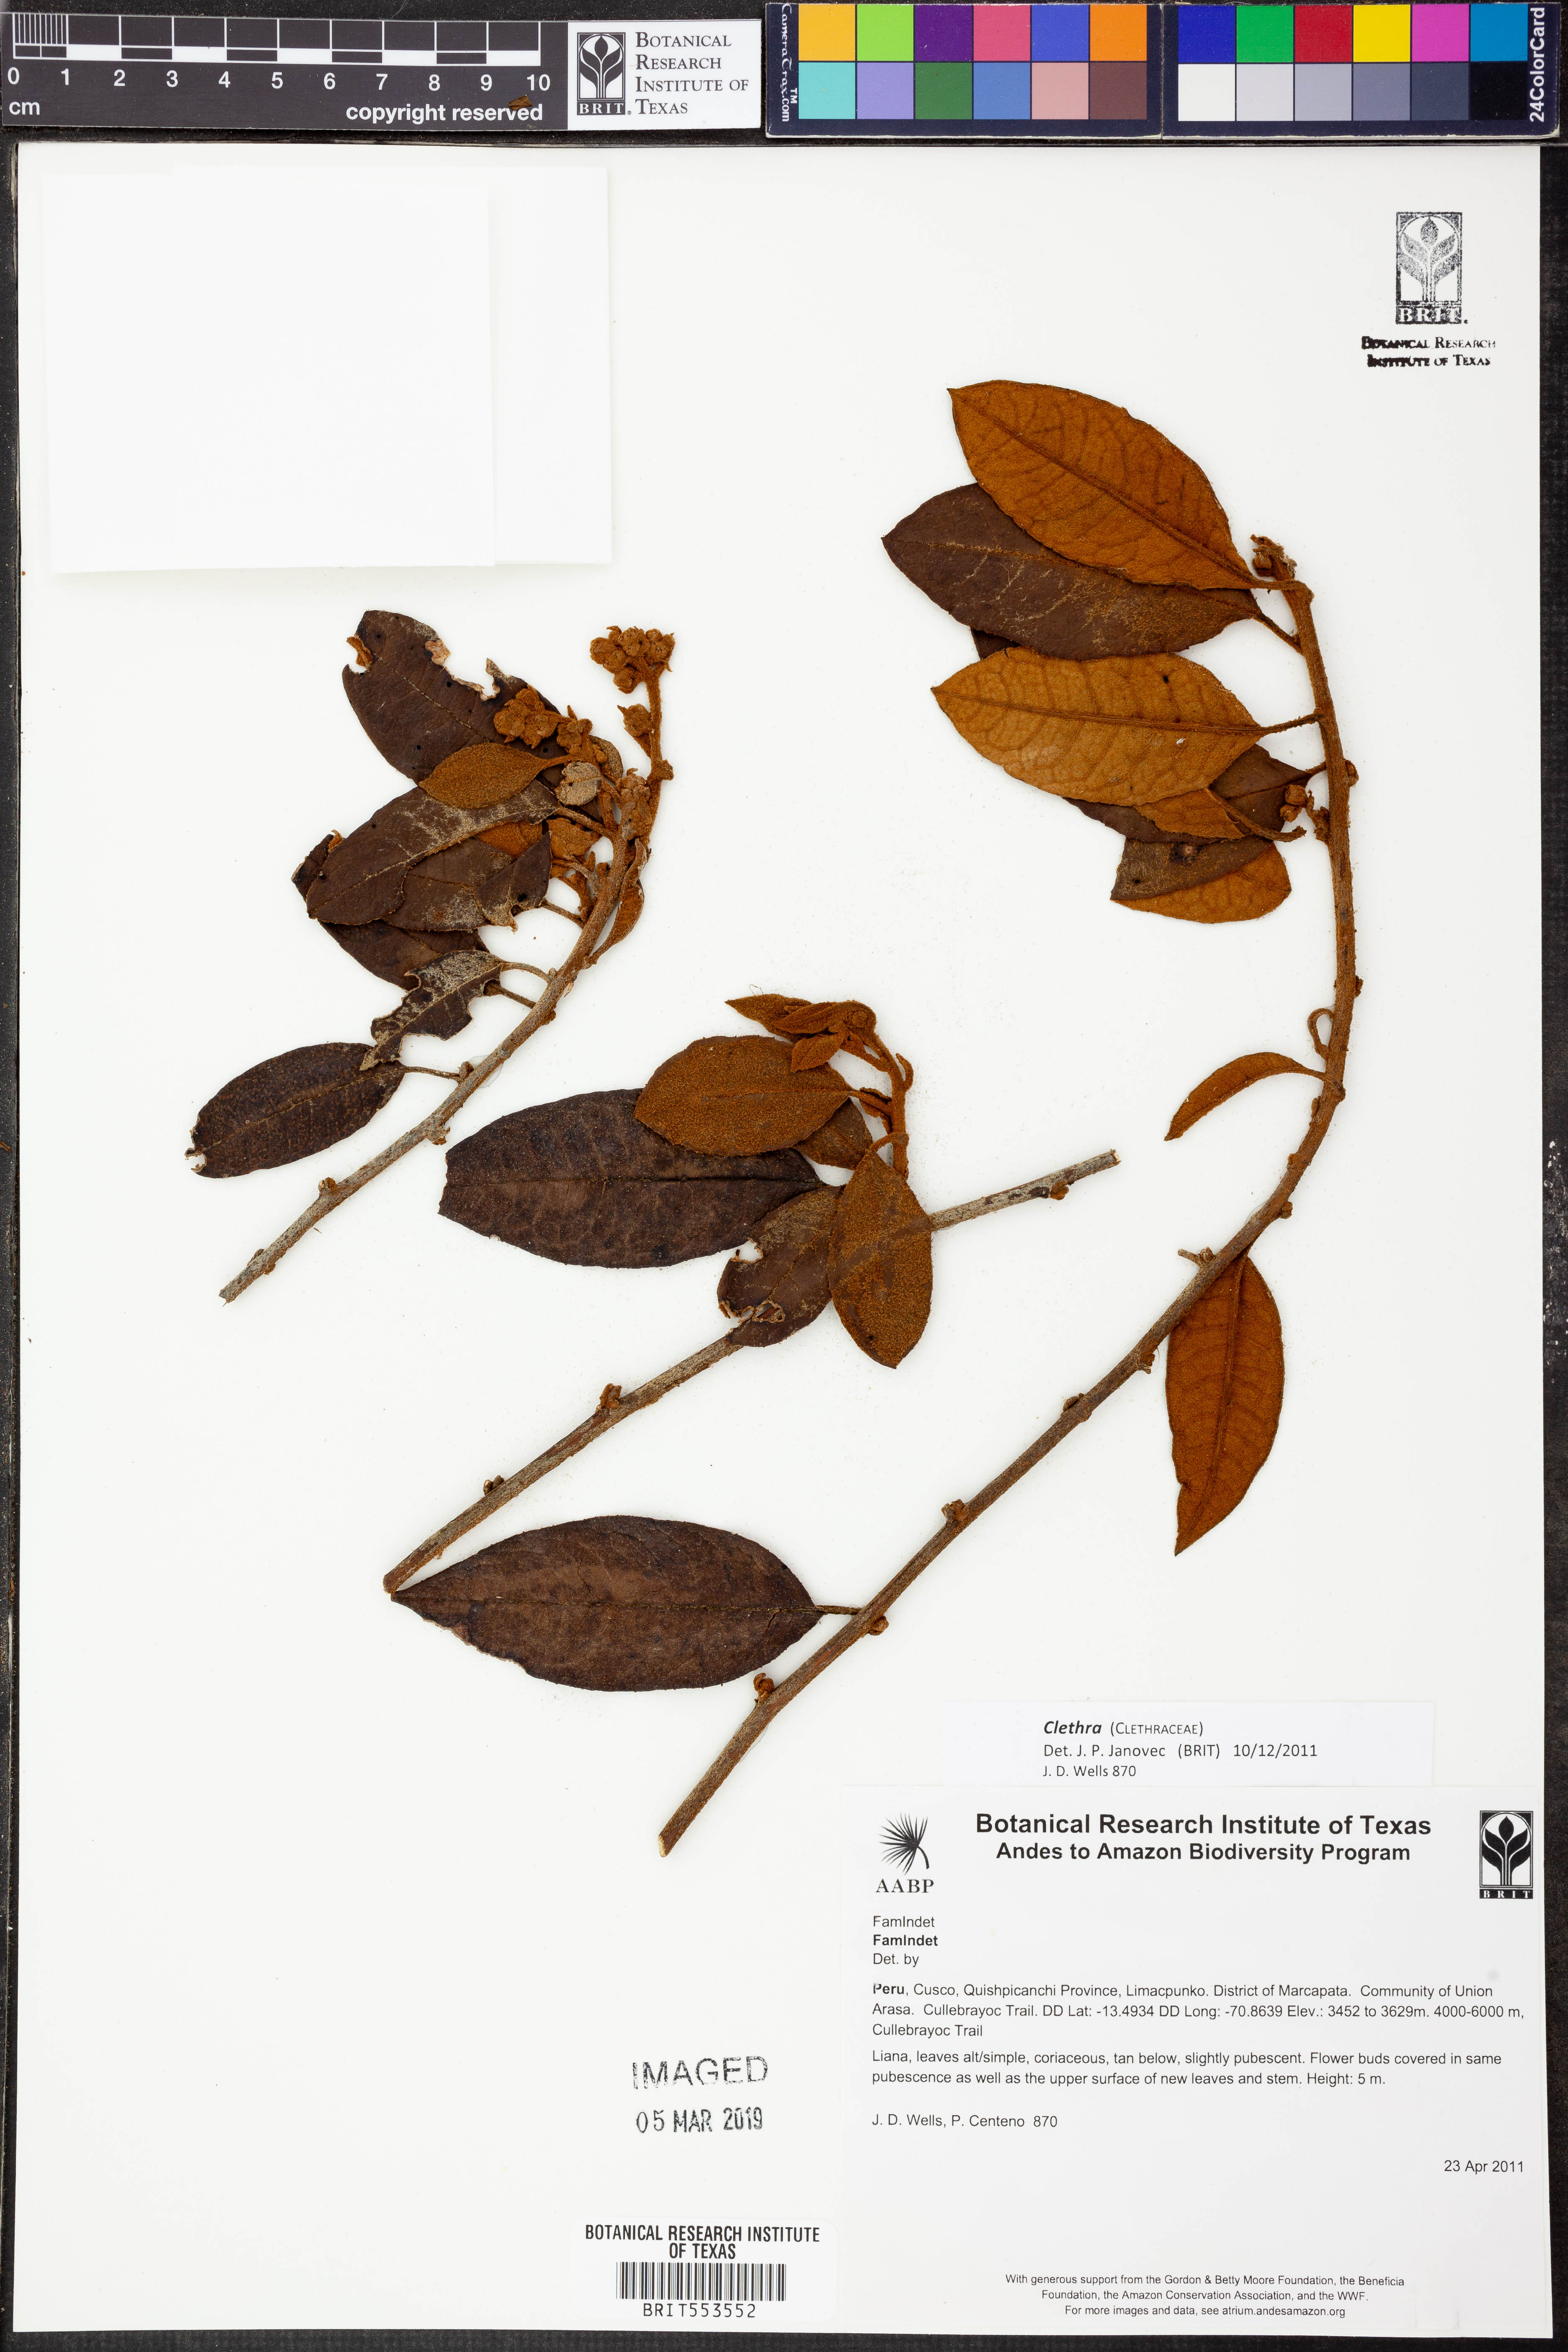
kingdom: Plantae
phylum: Tracheophyta
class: Magnoliopsida
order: Ericales
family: Clethraceae
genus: Clethra
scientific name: Clethra
